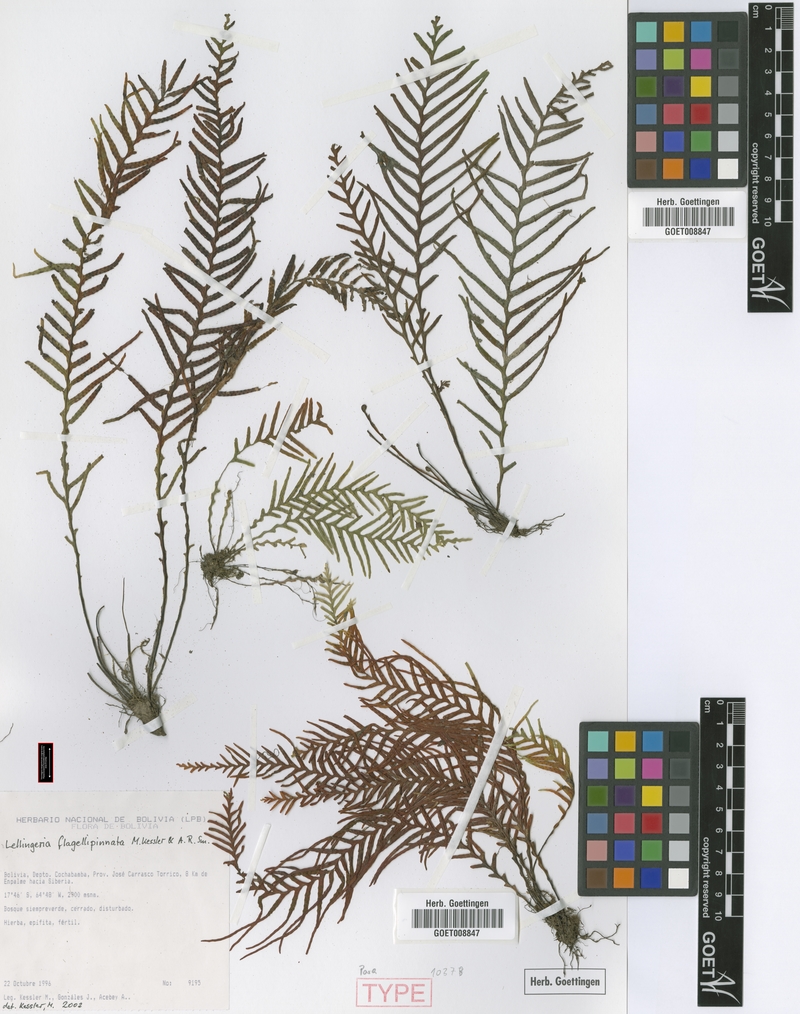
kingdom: Plantae
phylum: Tracheophyta
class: Polypodiopsida
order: Polypodiales
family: Polypodiaceae
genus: Lellingeria
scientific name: Lellingeria flagellipinnata
